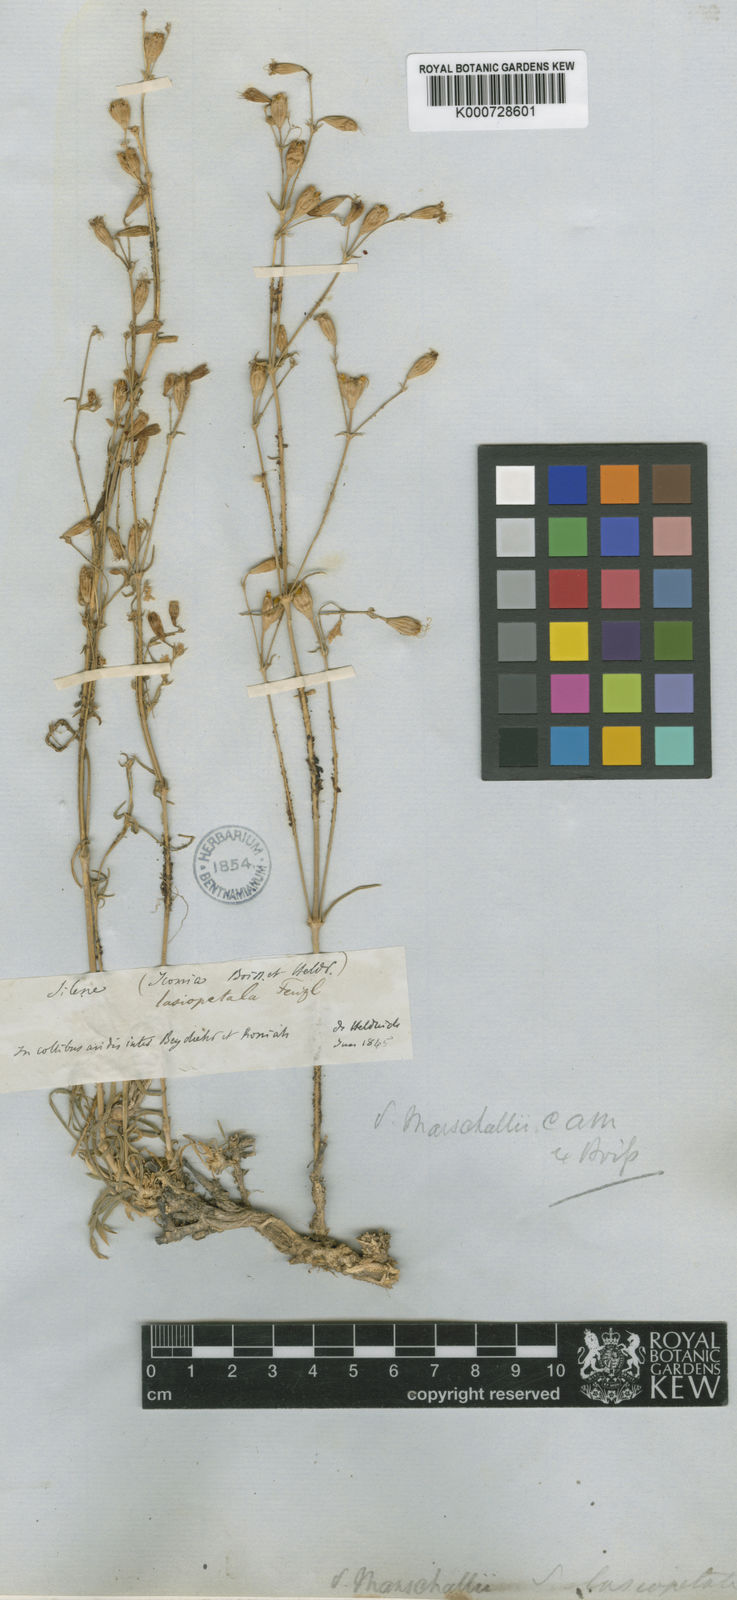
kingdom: Plantae
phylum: Tracheophyta
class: Magnoliopsida
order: Caryophyllales
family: Caryophyllaceae
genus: Silene
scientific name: Silene
